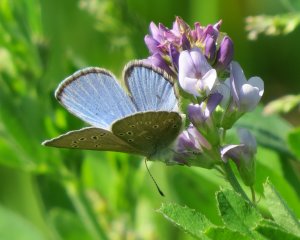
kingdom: Animalia
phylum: Arthropoda
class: Insecta
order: Lepidoptera
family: Lycaenidae
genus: Glaucopsyche
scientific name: Glaucopsyche lygdamus
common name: Silvery Blue
